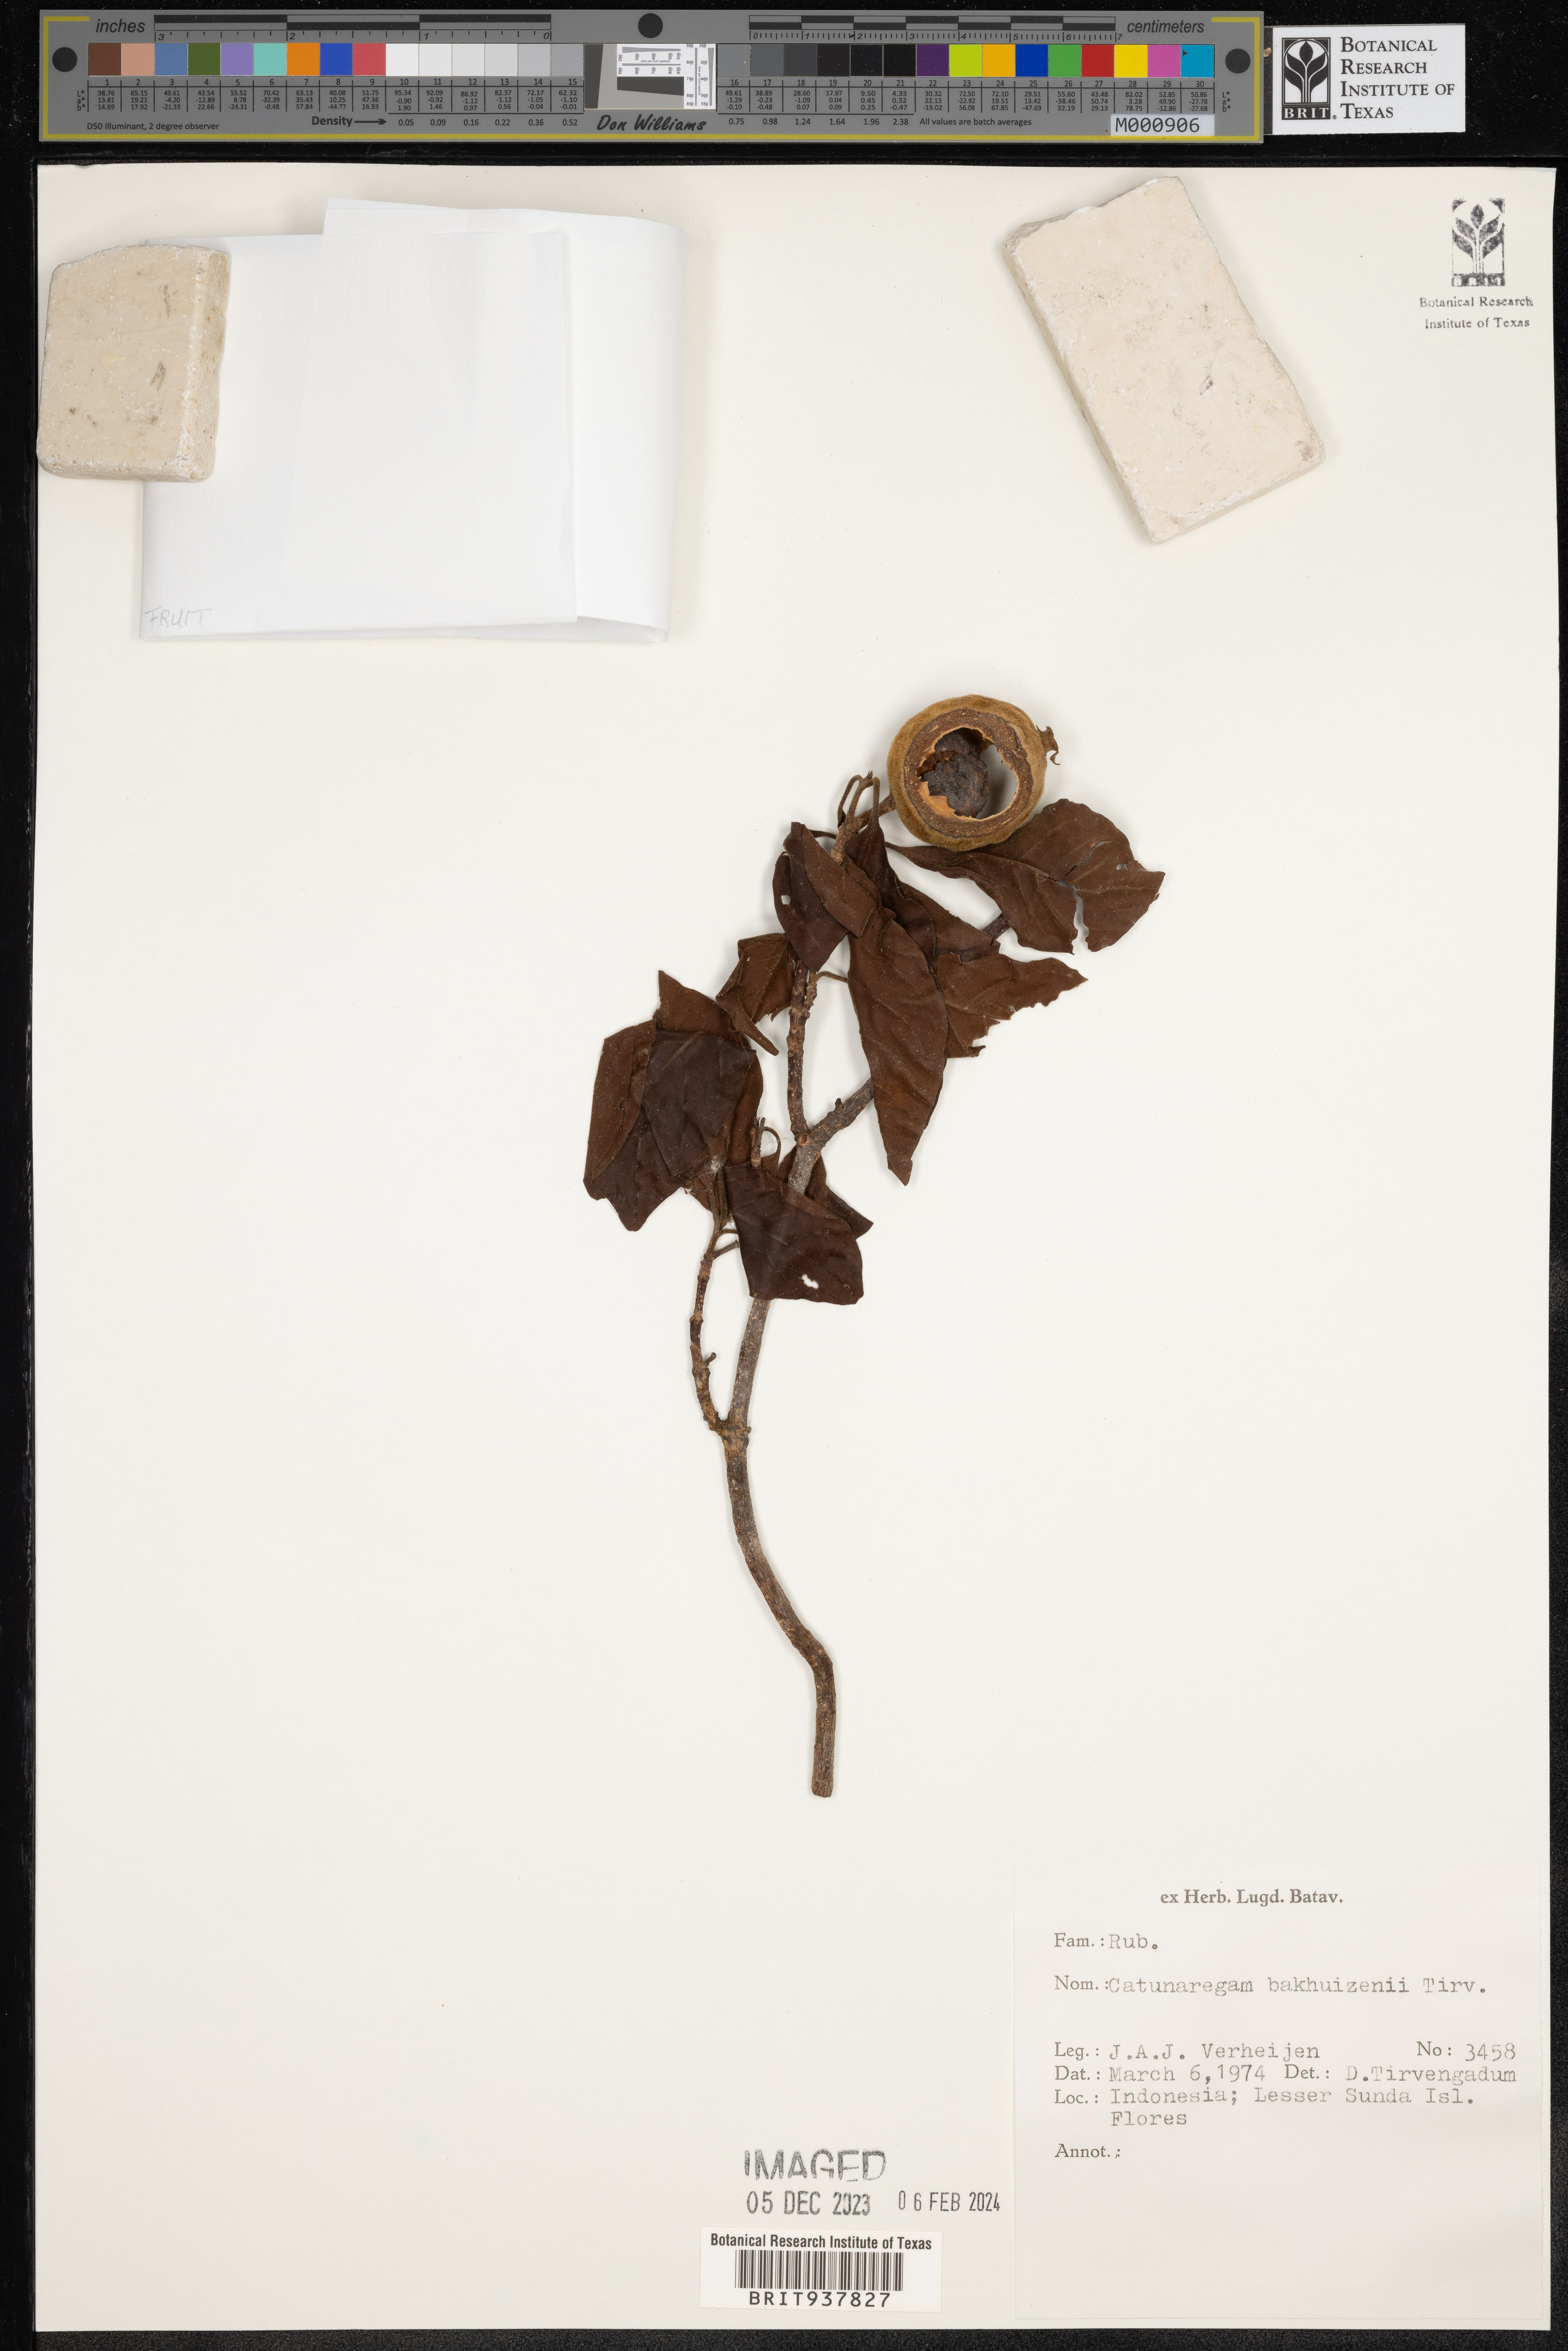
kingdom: Plantae
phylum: Tracheophyta
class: Magnoliopsida
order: Gentianales
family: Rubiaceae
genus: Catunaregam
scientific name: Catunaregam
